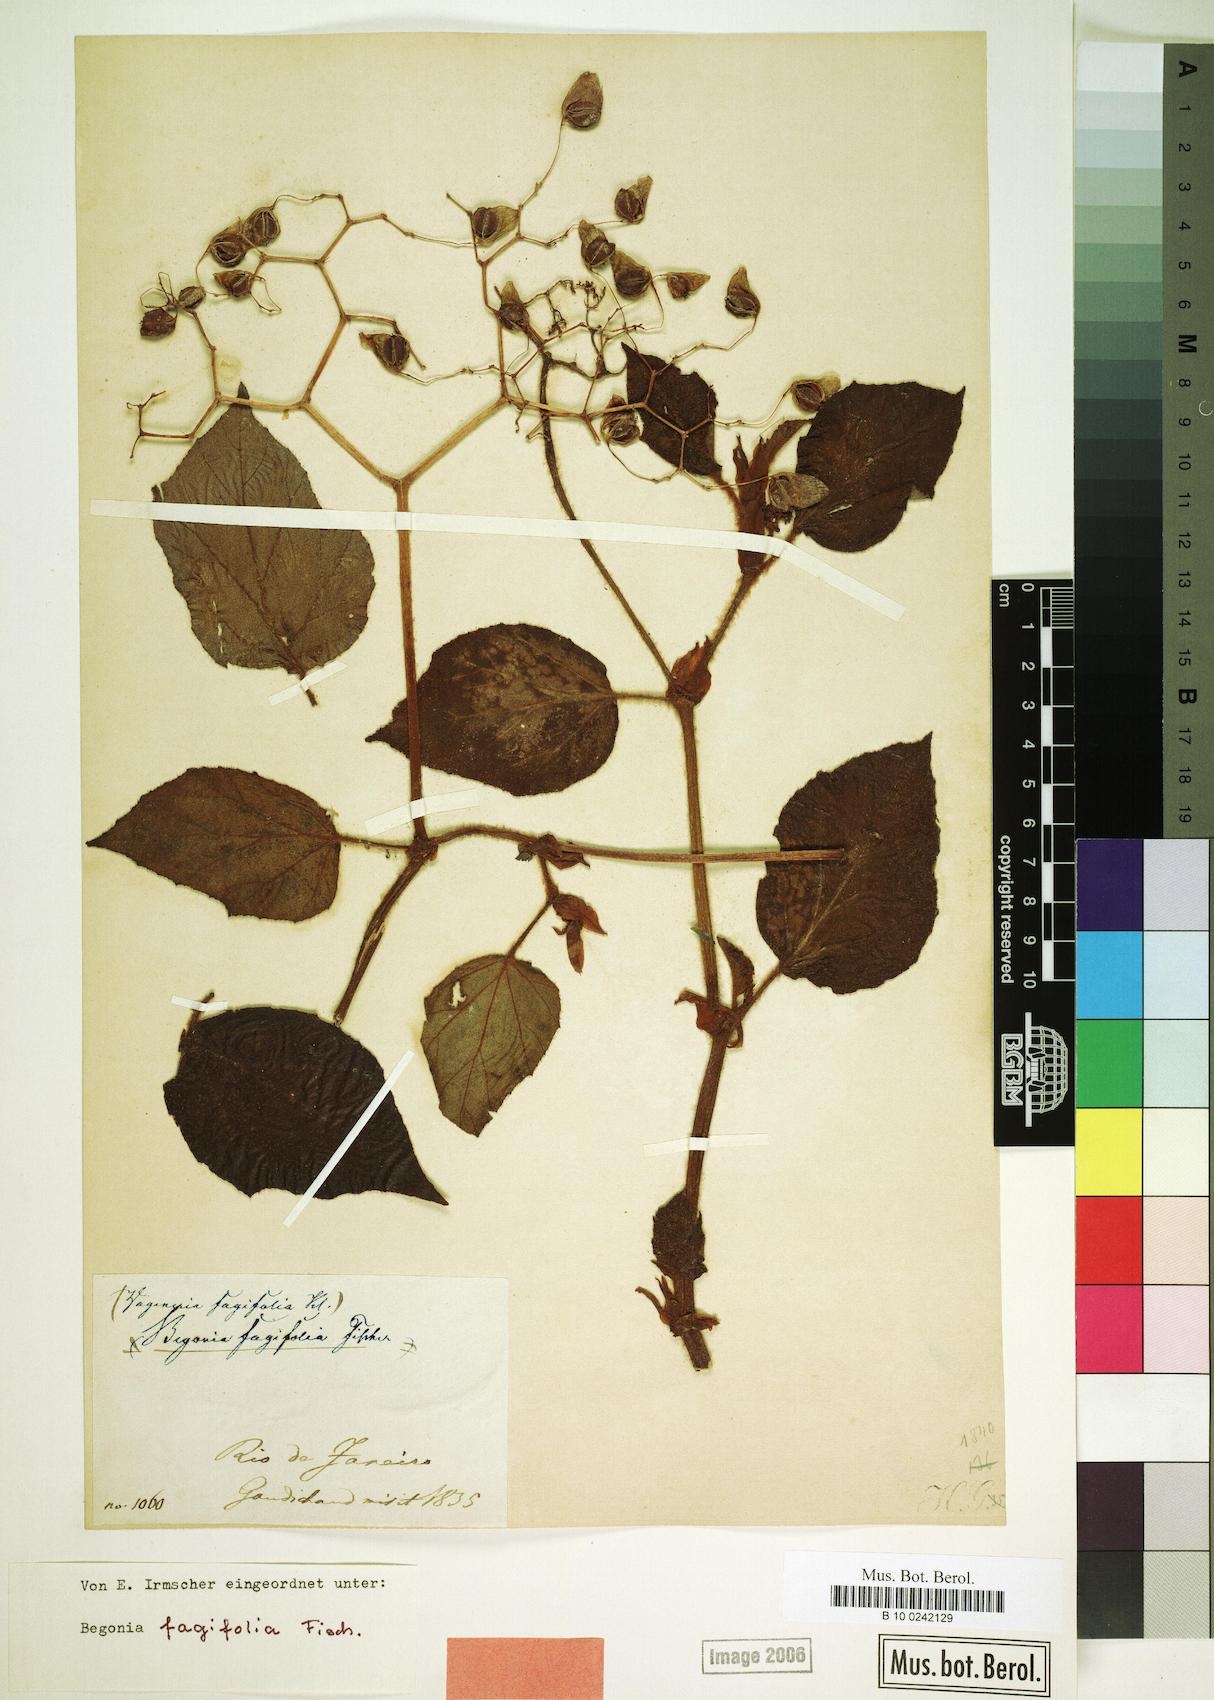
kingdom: Plantae
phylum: Tracheophyta
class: Magnoliopsida
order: Cucurbitales
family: Begoniaceae
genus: Begonia
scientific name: Begonia fagifolia
